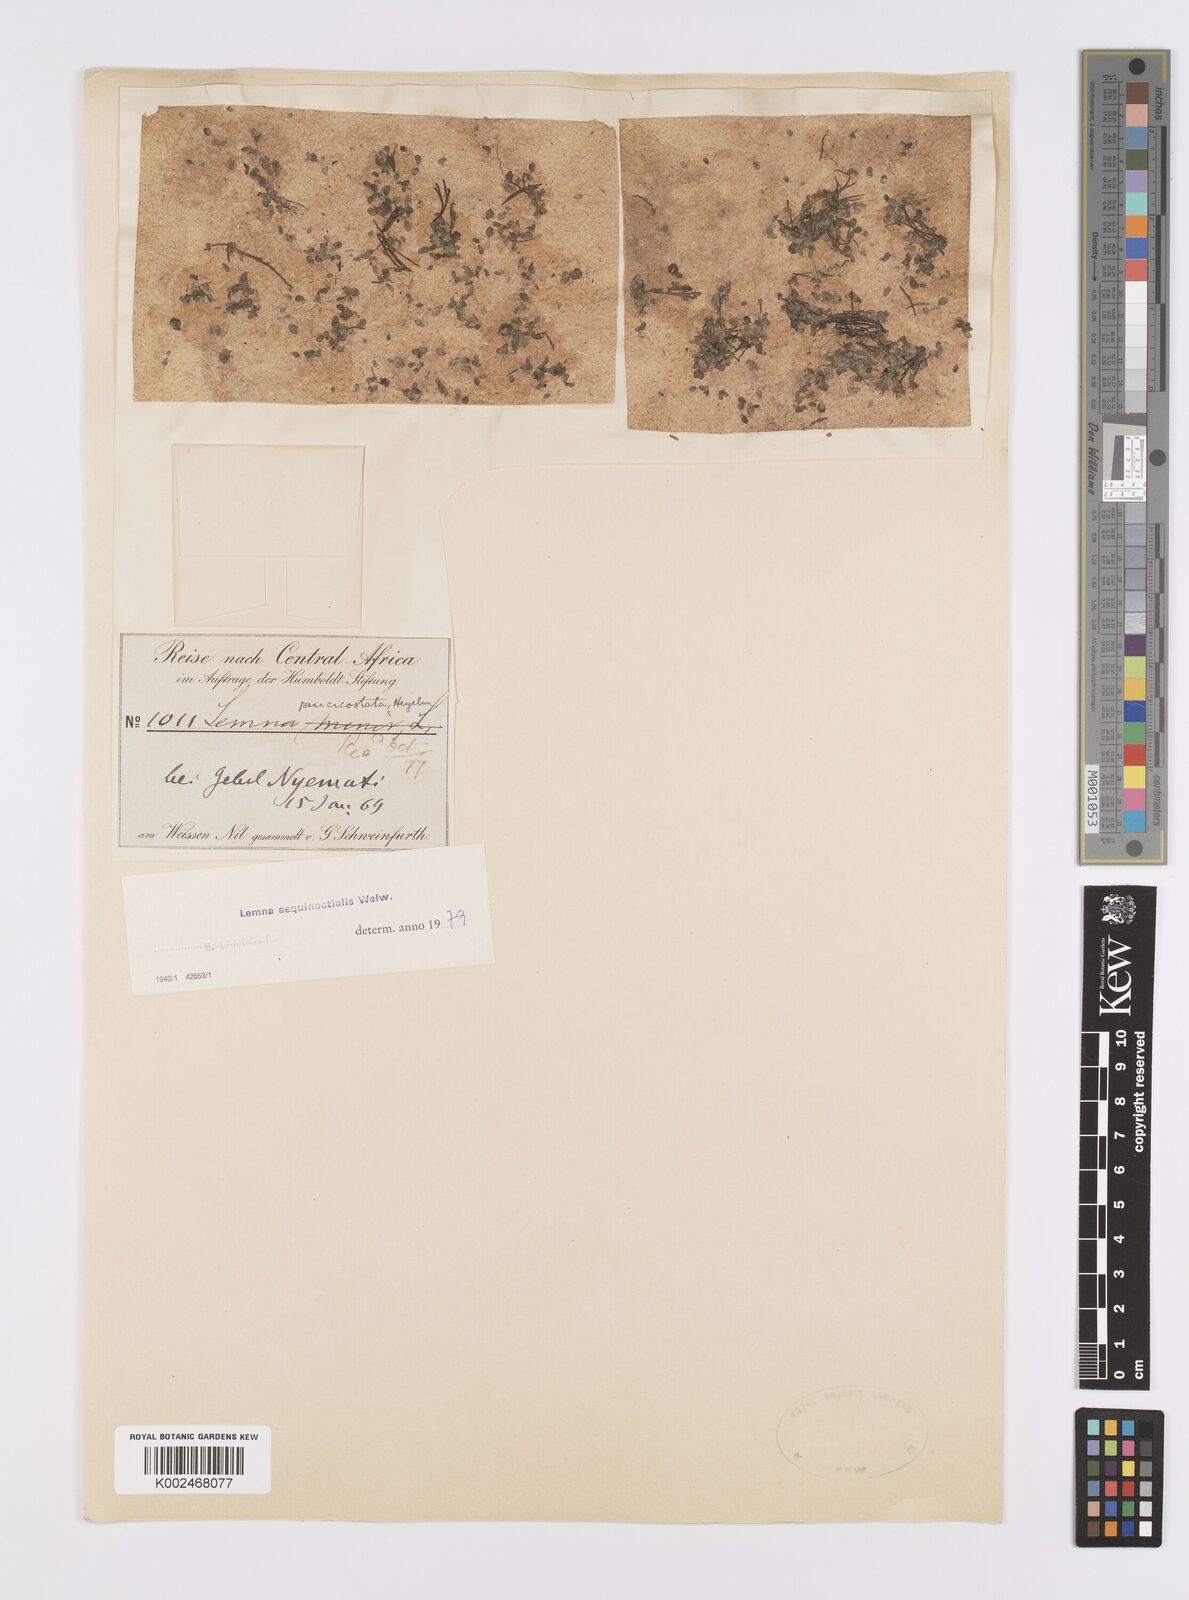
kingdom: Plantae
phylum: Tracheophyta
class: Liliopsida
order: Alismatales
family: Araceae
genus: Lemna
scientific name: Lemna aequinoctialis
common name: Duckweed
